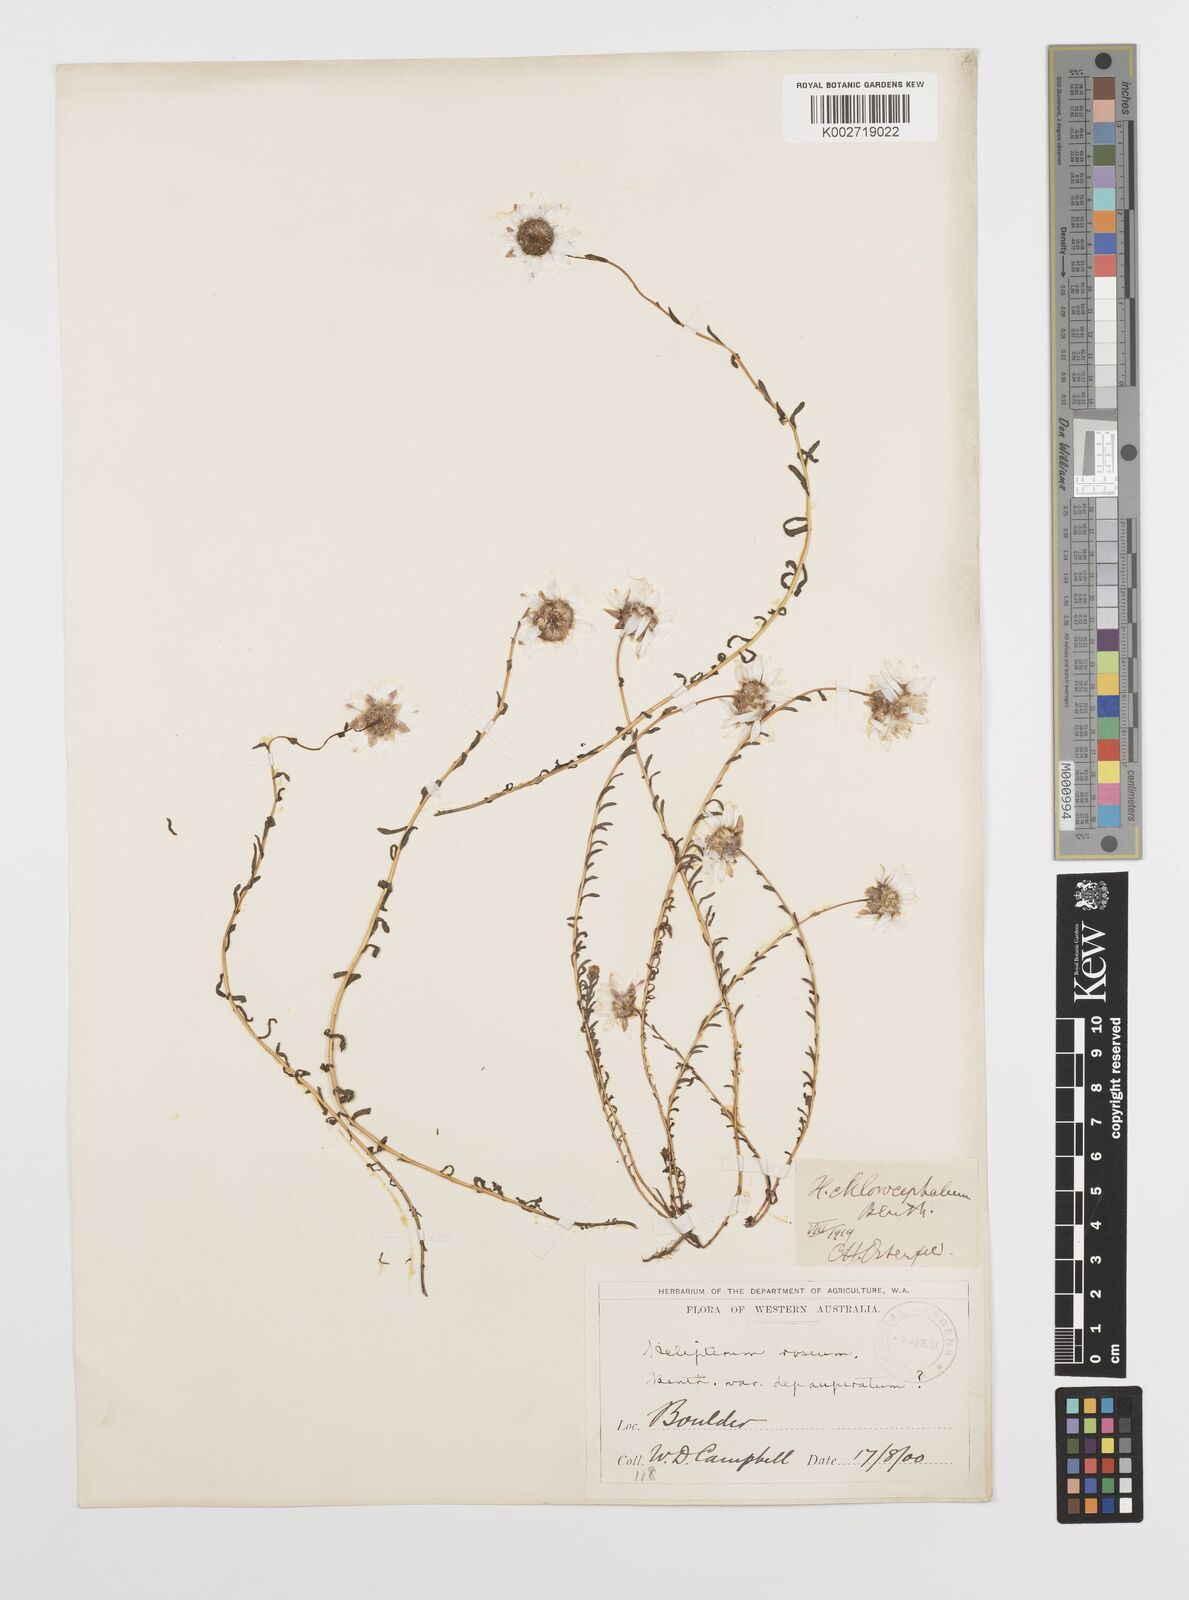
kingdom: Plantae
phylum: Tracheophyta
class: Magnoliopsida
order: Asterales
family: Asteraceae
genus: Rhodanthe
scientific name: Rhodanthe chlorocephala
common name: Rosy sunray
